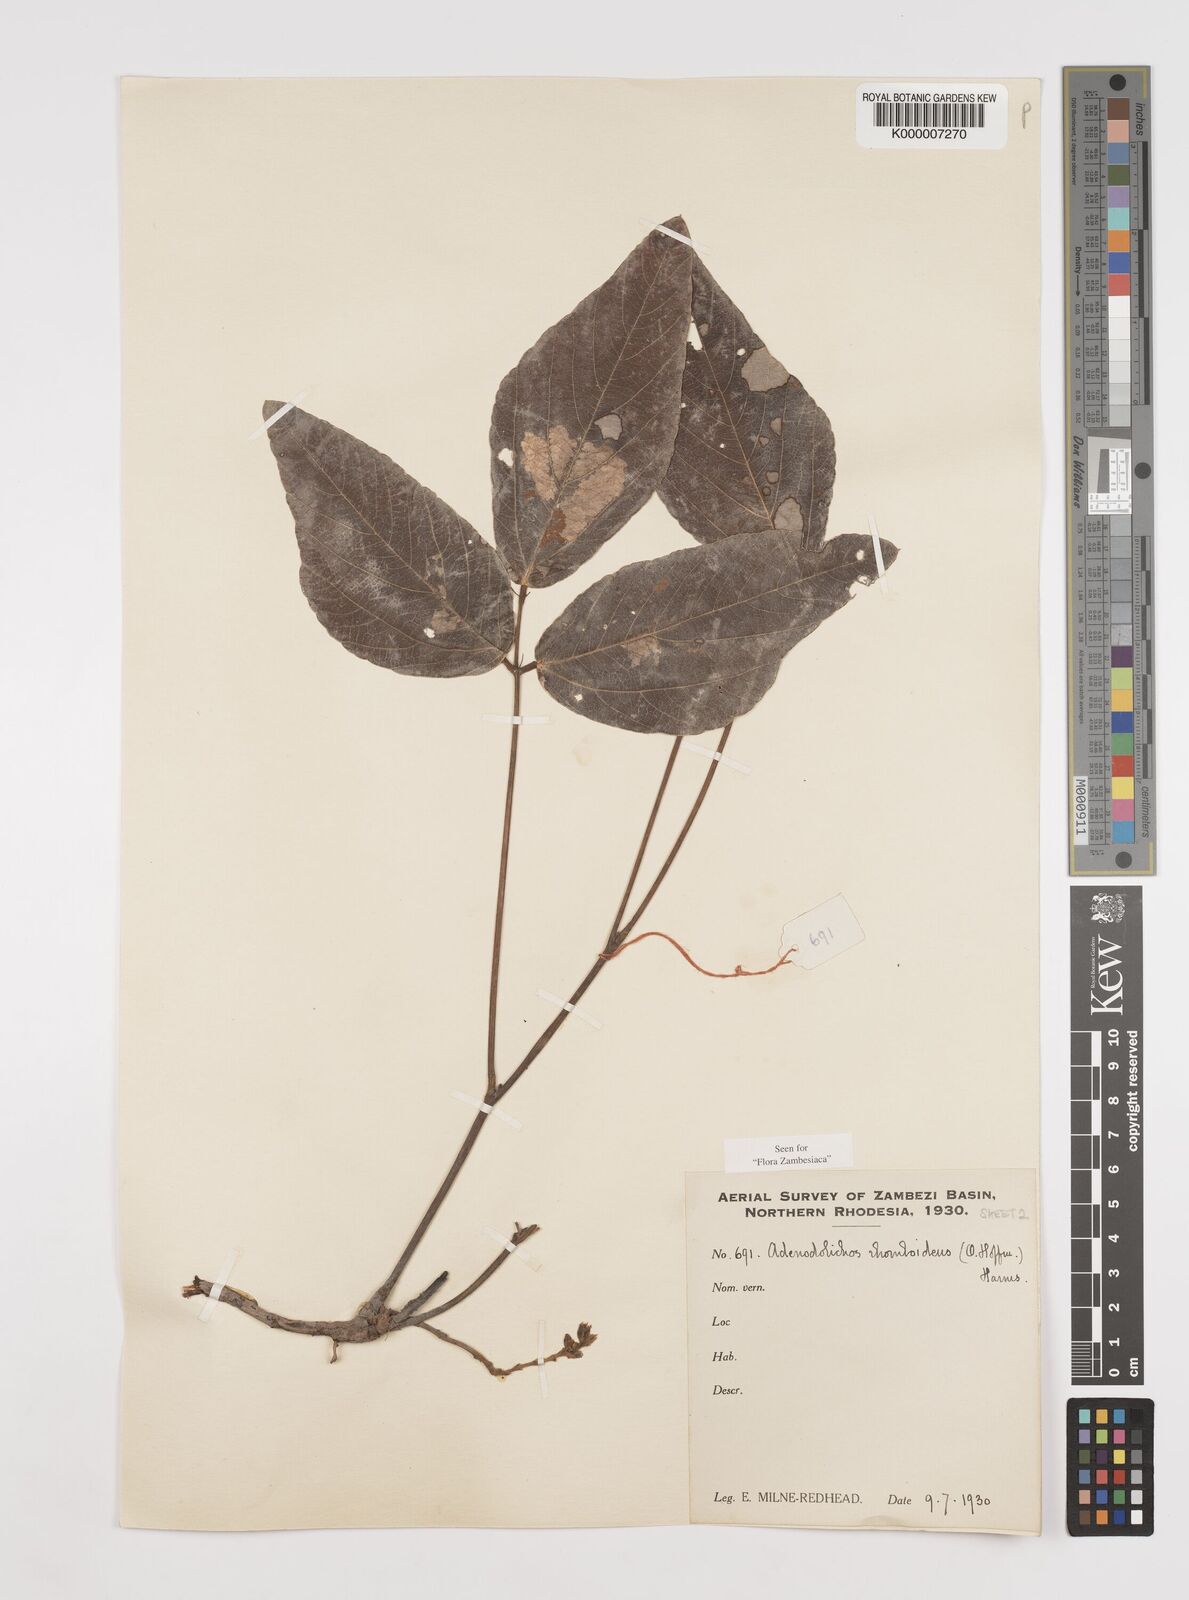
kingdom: Plantae
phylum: Tracheophyta
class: Magnoliopsida
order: Fabales
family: Fabaceae
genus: Adenodolichos
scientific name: Adenodolichos rhomboideus
